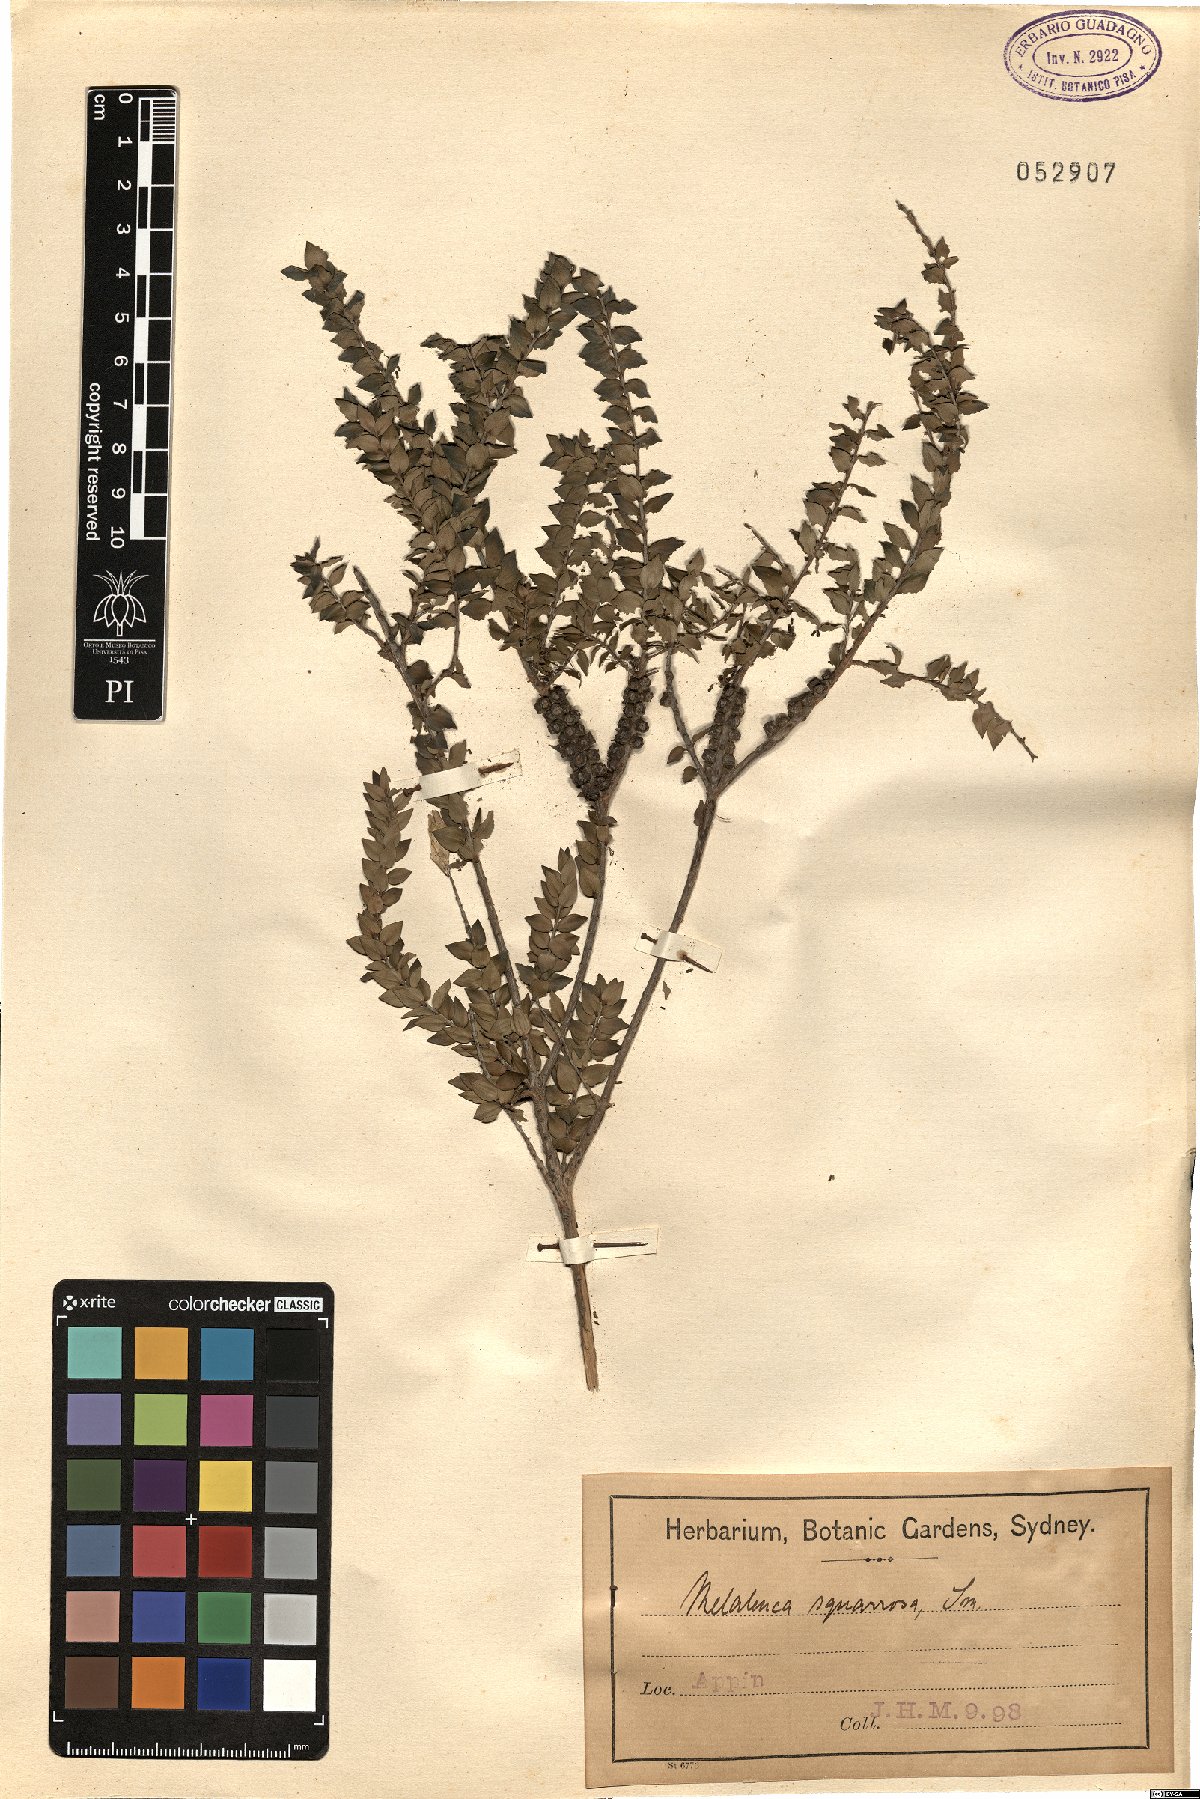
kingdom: Plantae
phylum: Tracheophyta
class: Magnoliopsida
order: Myrtales
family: Myrtaceae
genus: Melaleuca
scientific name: Melaleuca squarrosa
